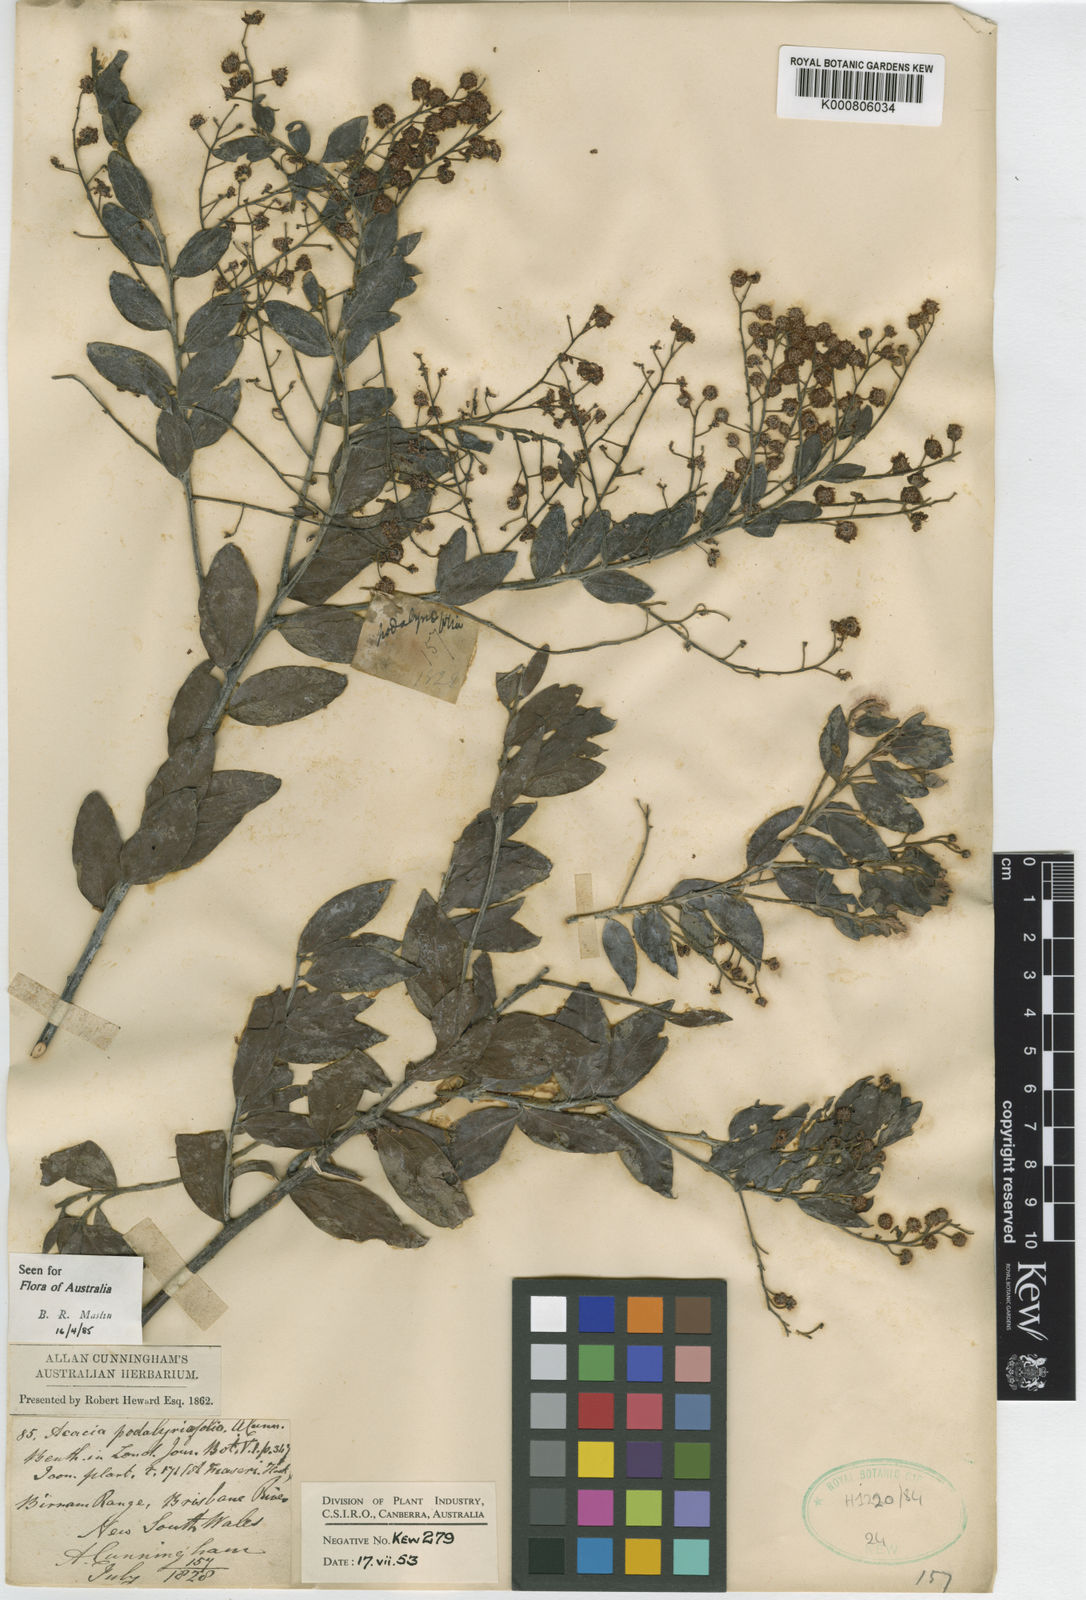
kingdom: Plantae
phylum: Tracheophyta
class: Magnoliopsida
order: Fabales
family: Fabaceae
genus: Acacia
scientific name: Acacia
